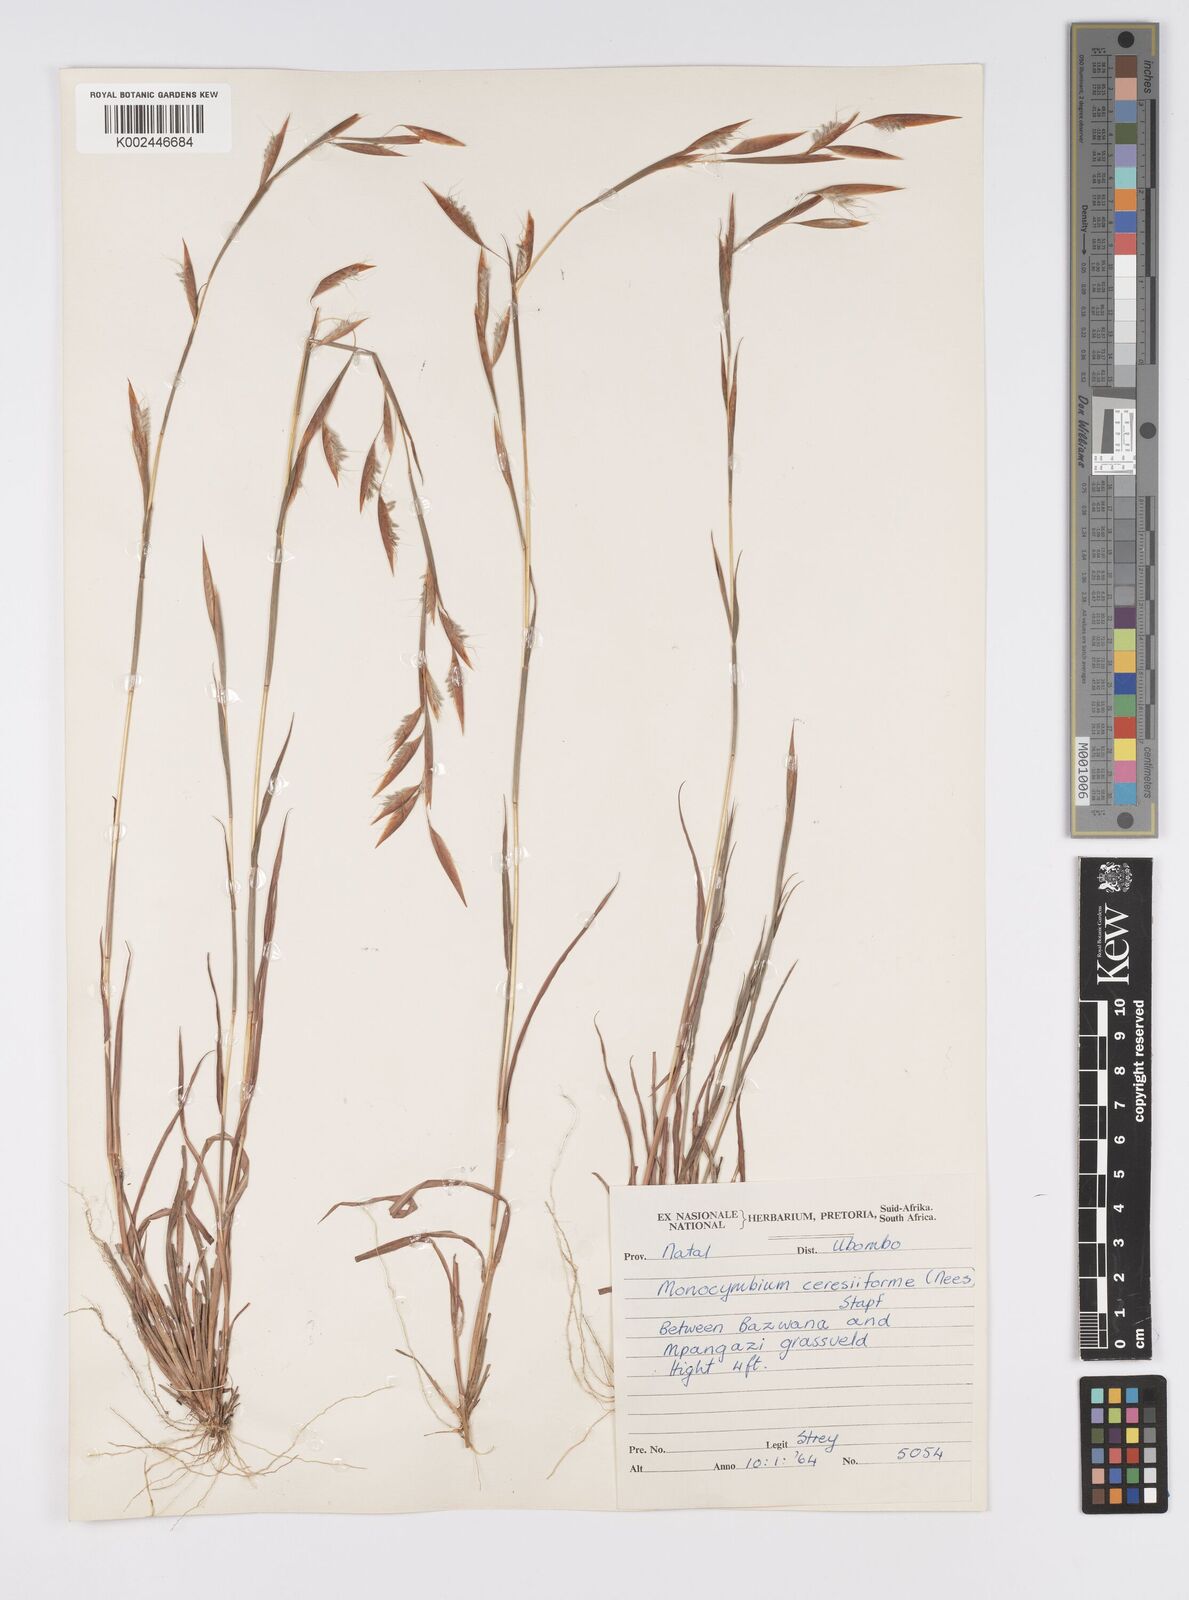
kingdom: Plantae
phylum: Tracheophyta
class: Liliopsida
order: Poales
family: Poaceae
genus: Monocymbium
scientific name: Monocymbium ceresiiforme
